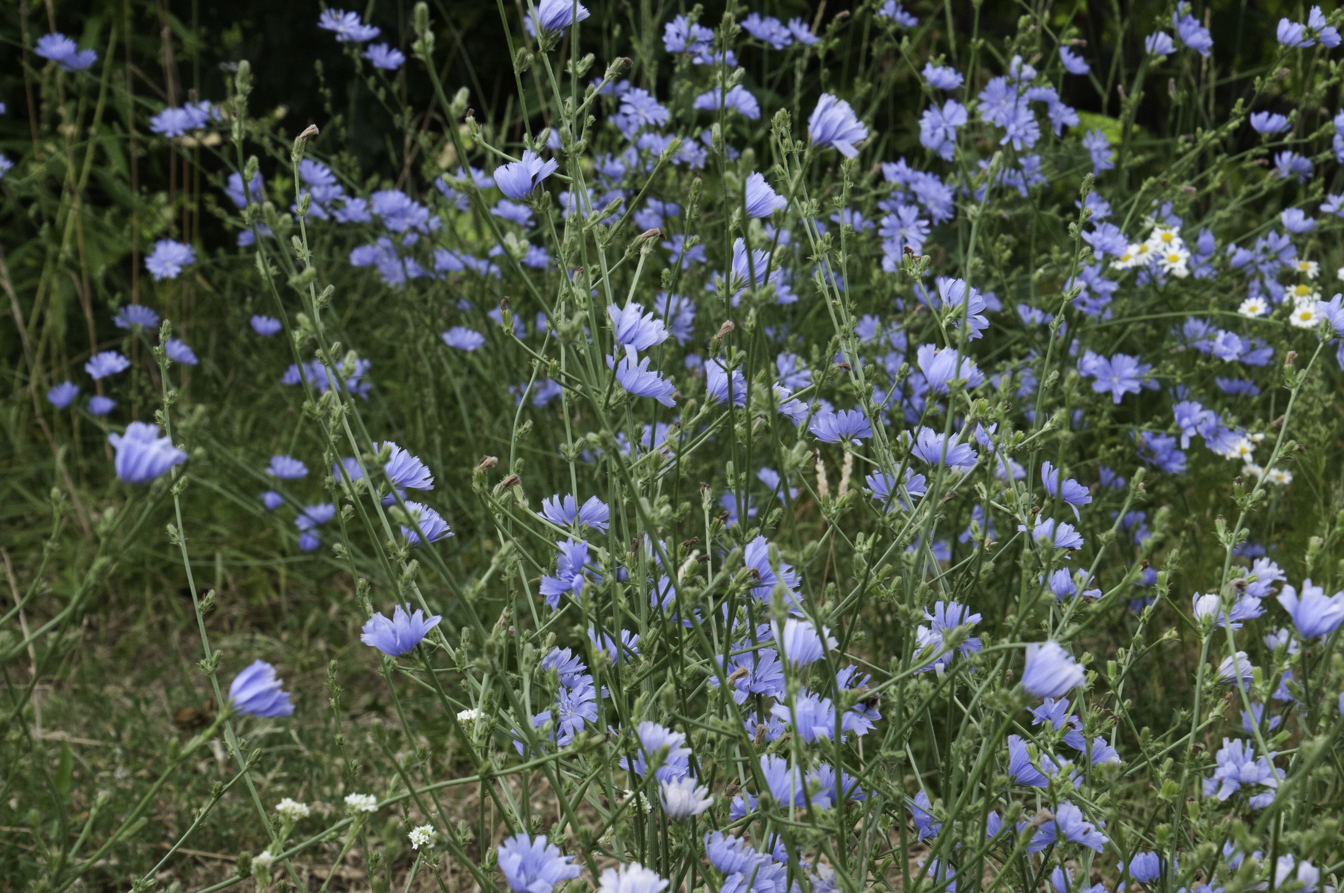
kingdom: Plantae
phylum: Tracheophyta
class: Magnoliopsida
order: Asterales
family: Asteraceae
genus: Cichorium
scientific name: Cichorium intybus
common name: Chicory
